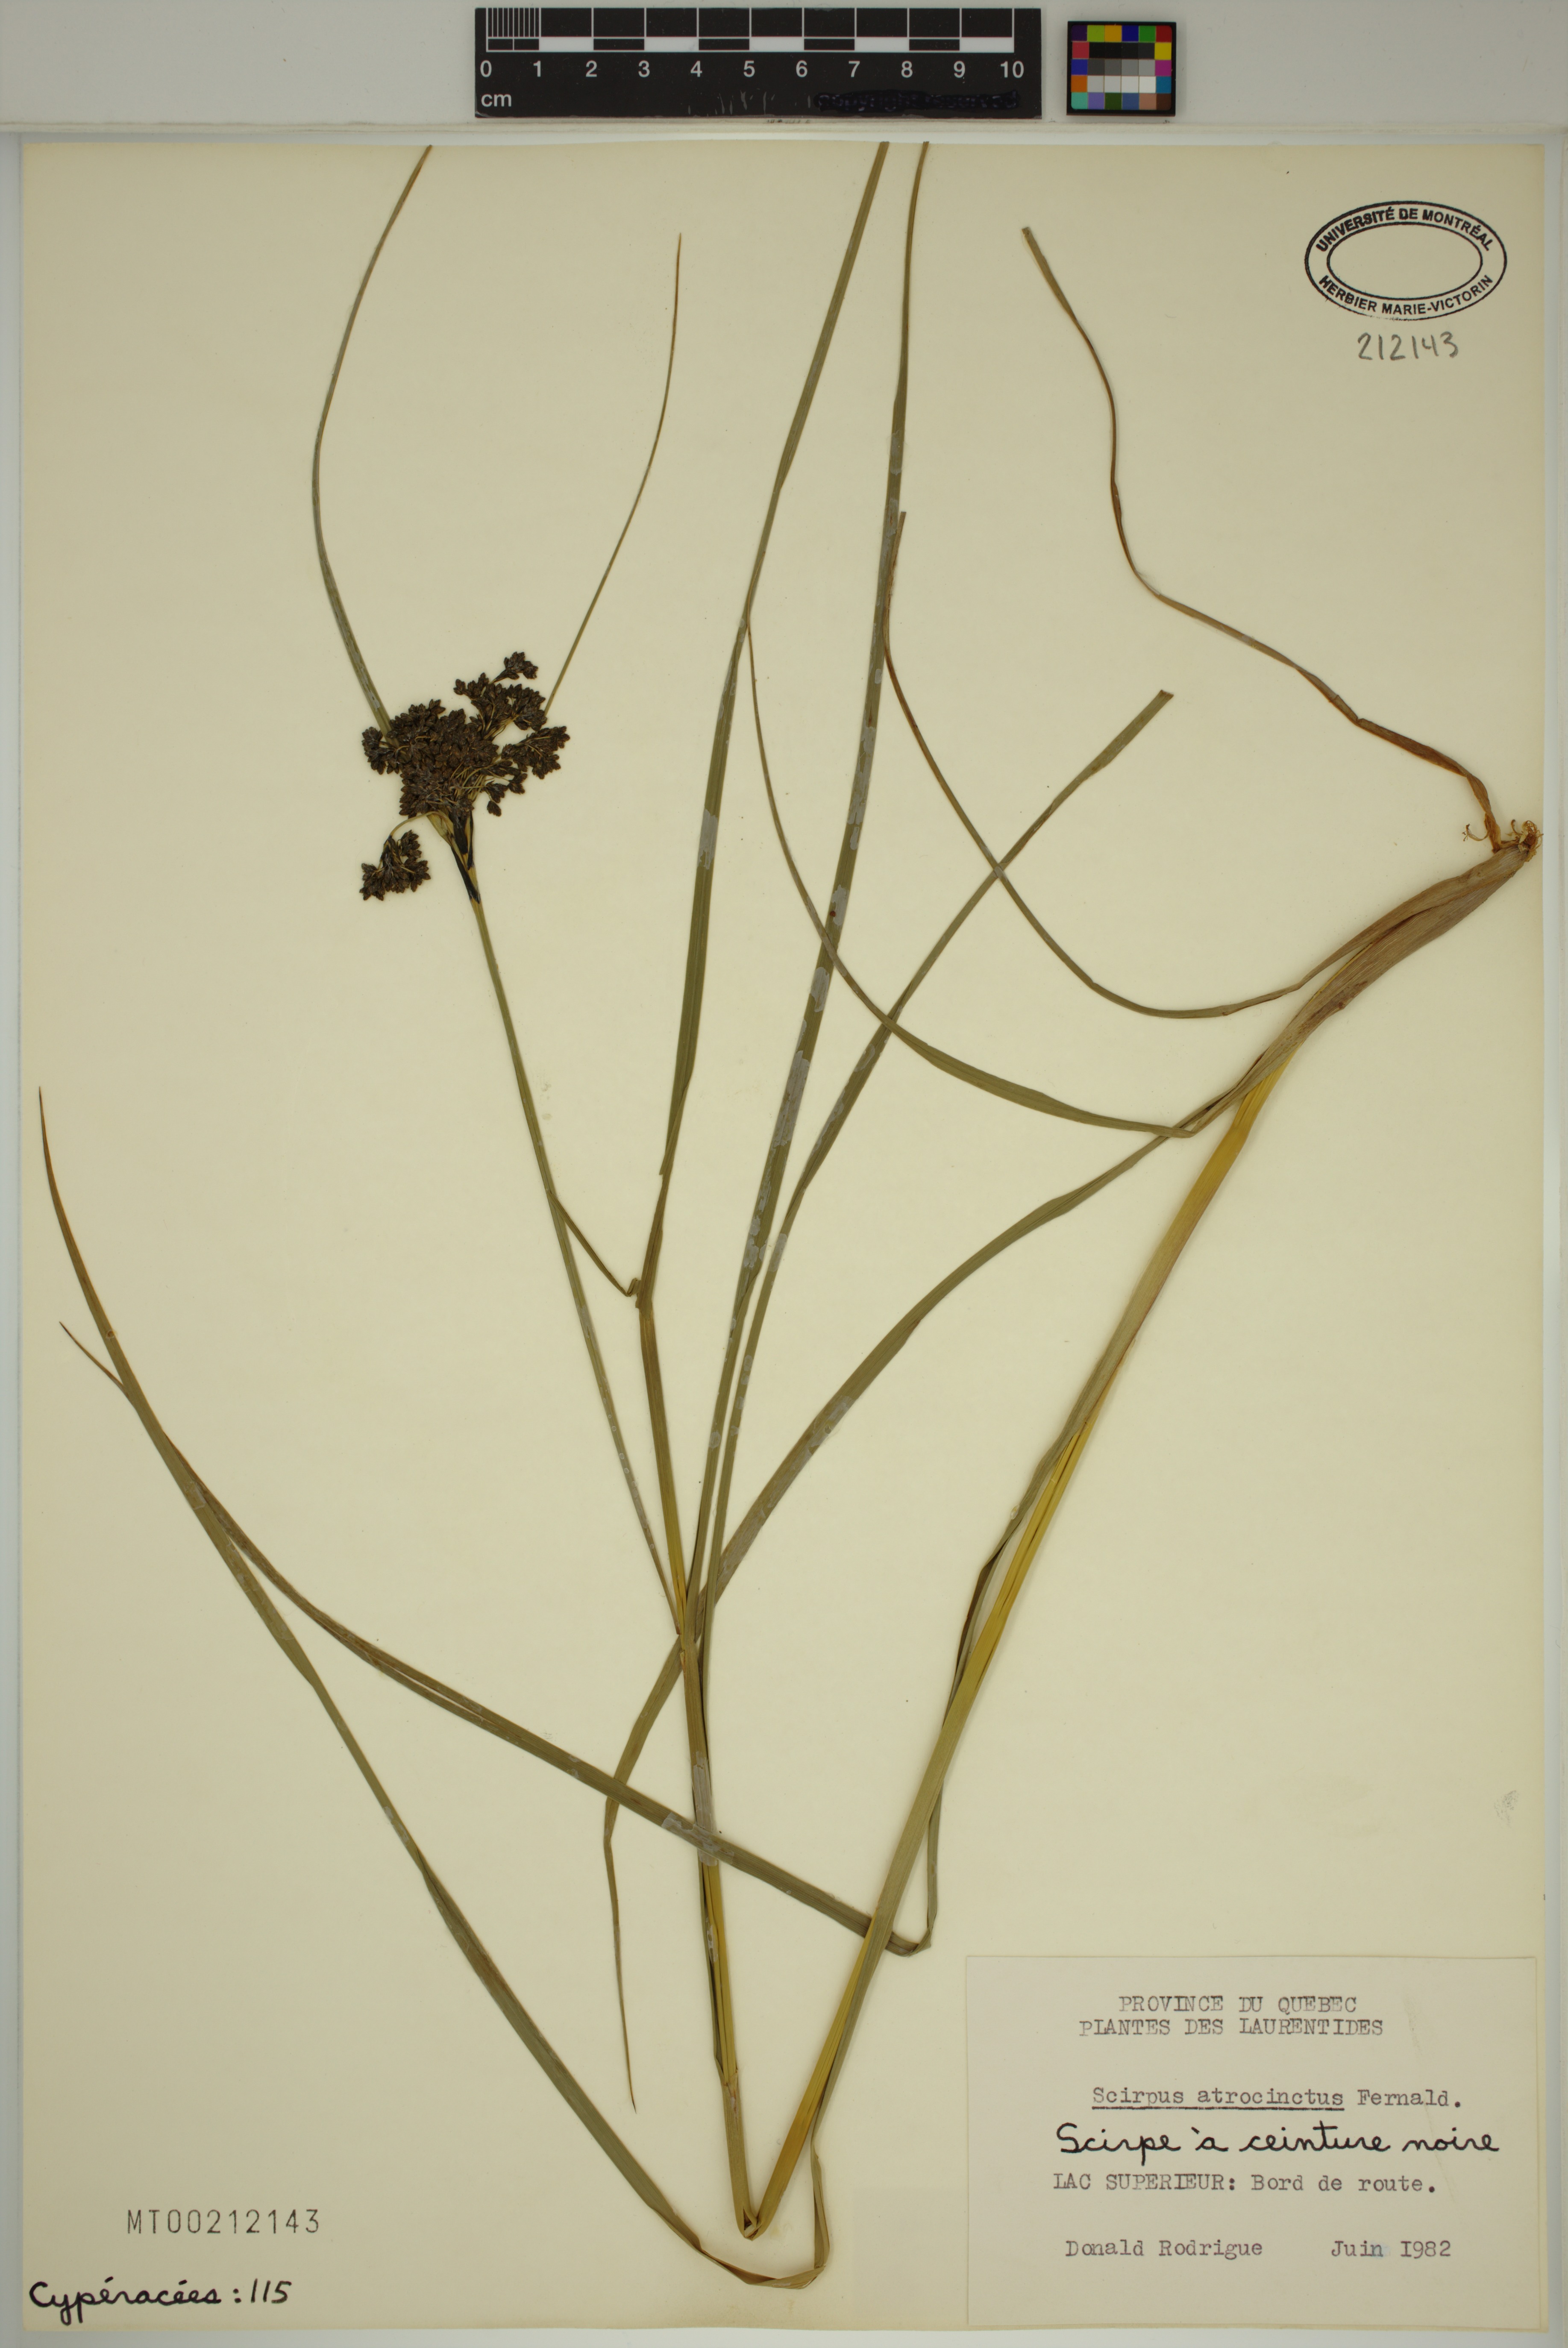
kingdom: Plantae
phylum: Tracheophyta
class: Liliopsida
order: Poales
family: Cyperaceae
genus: Scirpus
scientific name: Scirpus atrocinctus
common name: Black-girdled bulrush
